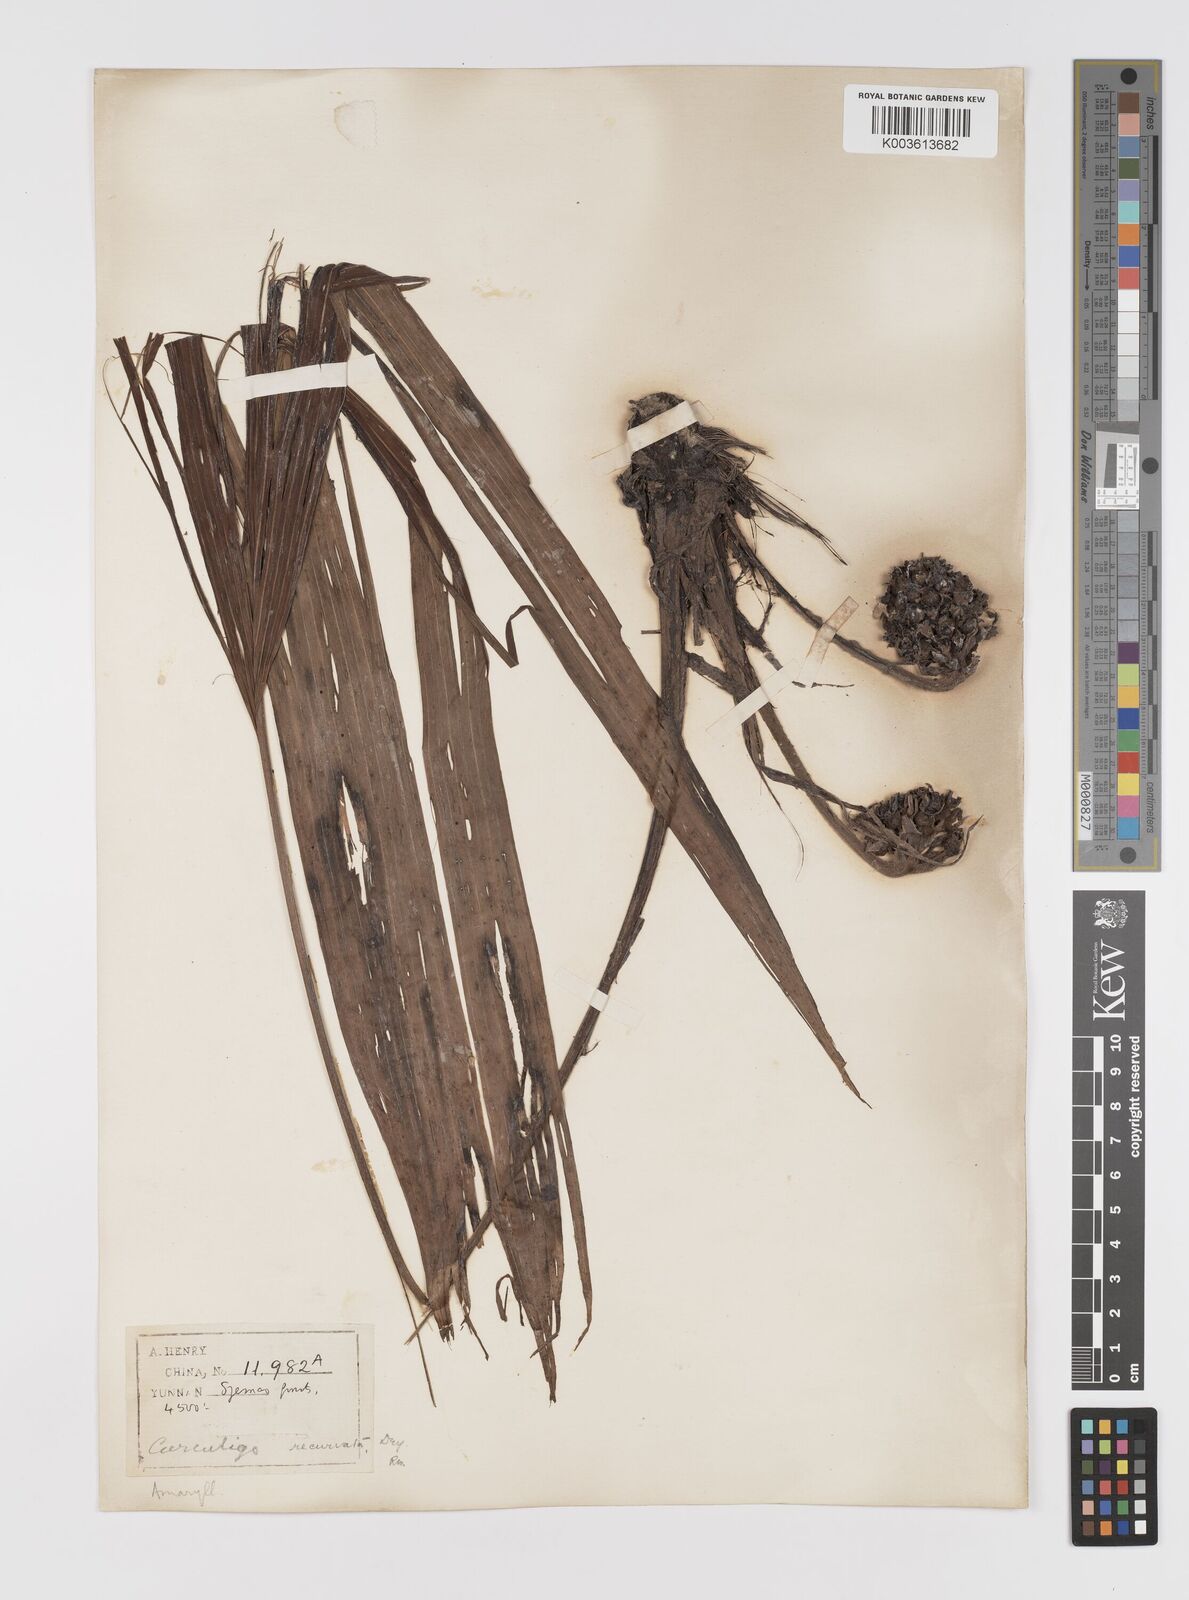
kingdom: Plantae
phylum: Tracheophyta
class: Liliopsida
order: Asparagales
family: Hypoxidaceae
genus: Curculigo
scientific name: Curculigo capitulata
